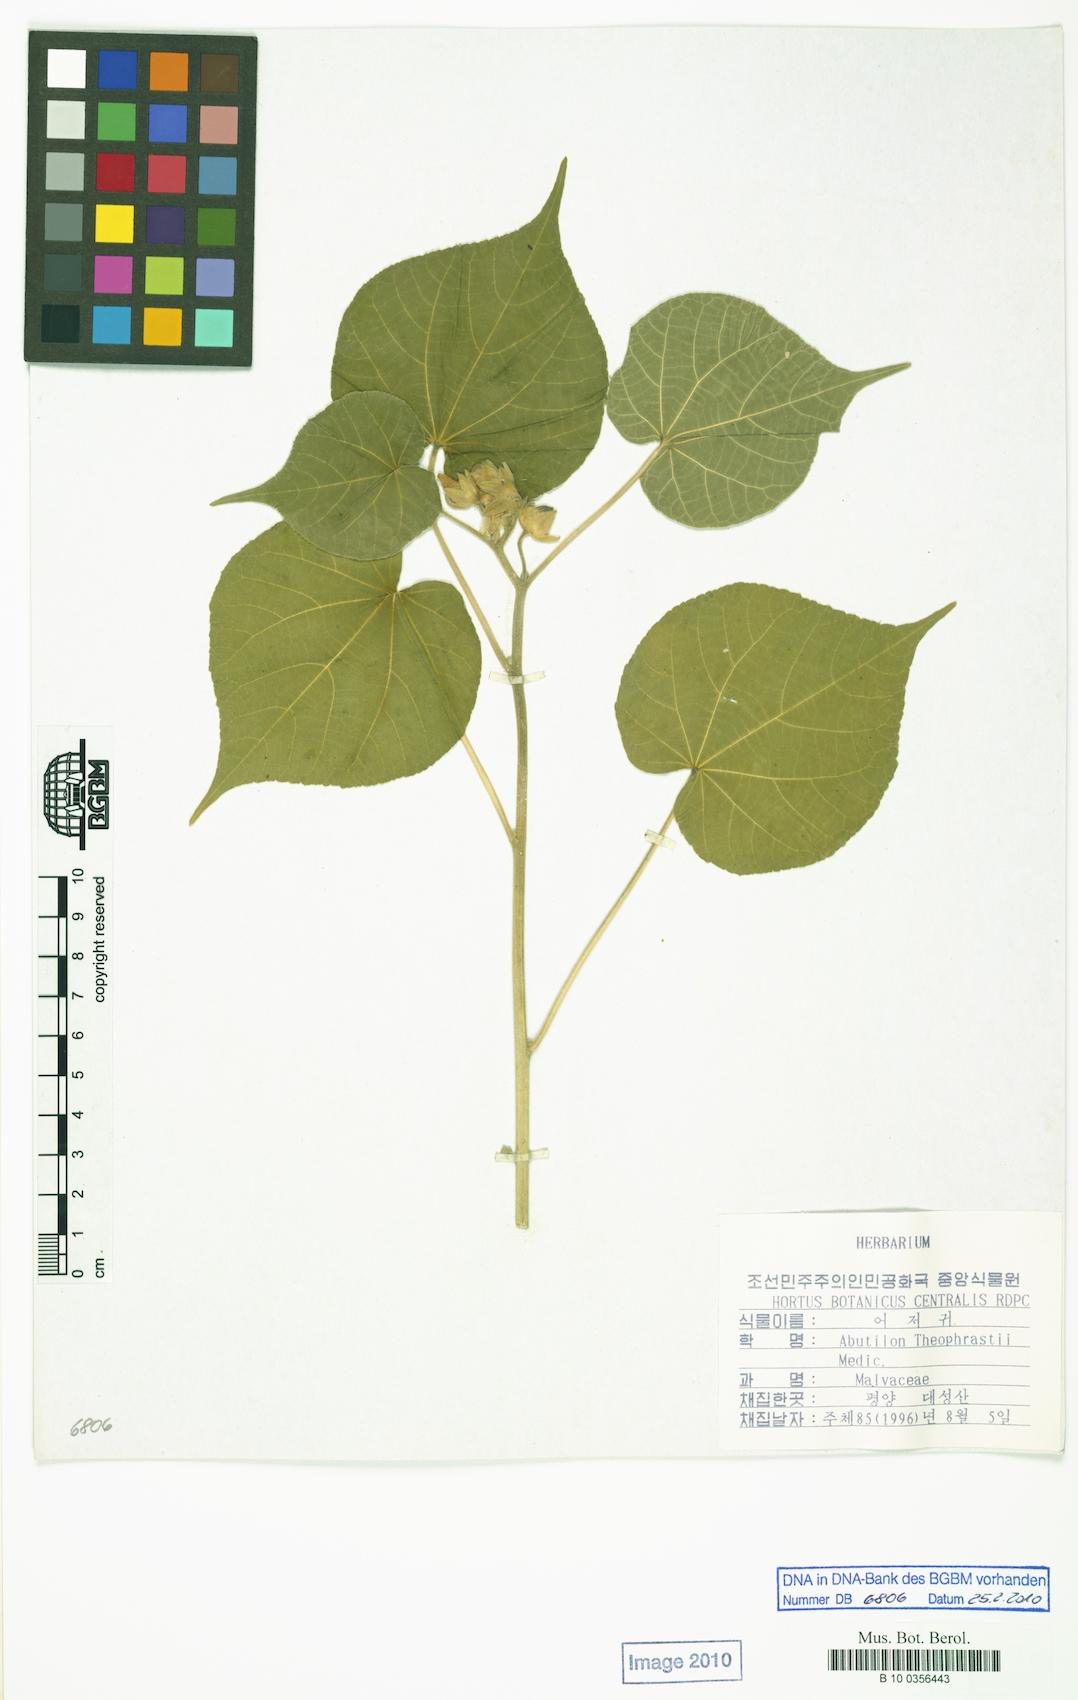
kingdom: Plantae
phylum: Tracheophyta
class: Magnoliopsida
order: Malvales
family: Malvaceae
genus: Abutilon
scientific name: Abutilon theophrasti
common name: Velvetleaf
